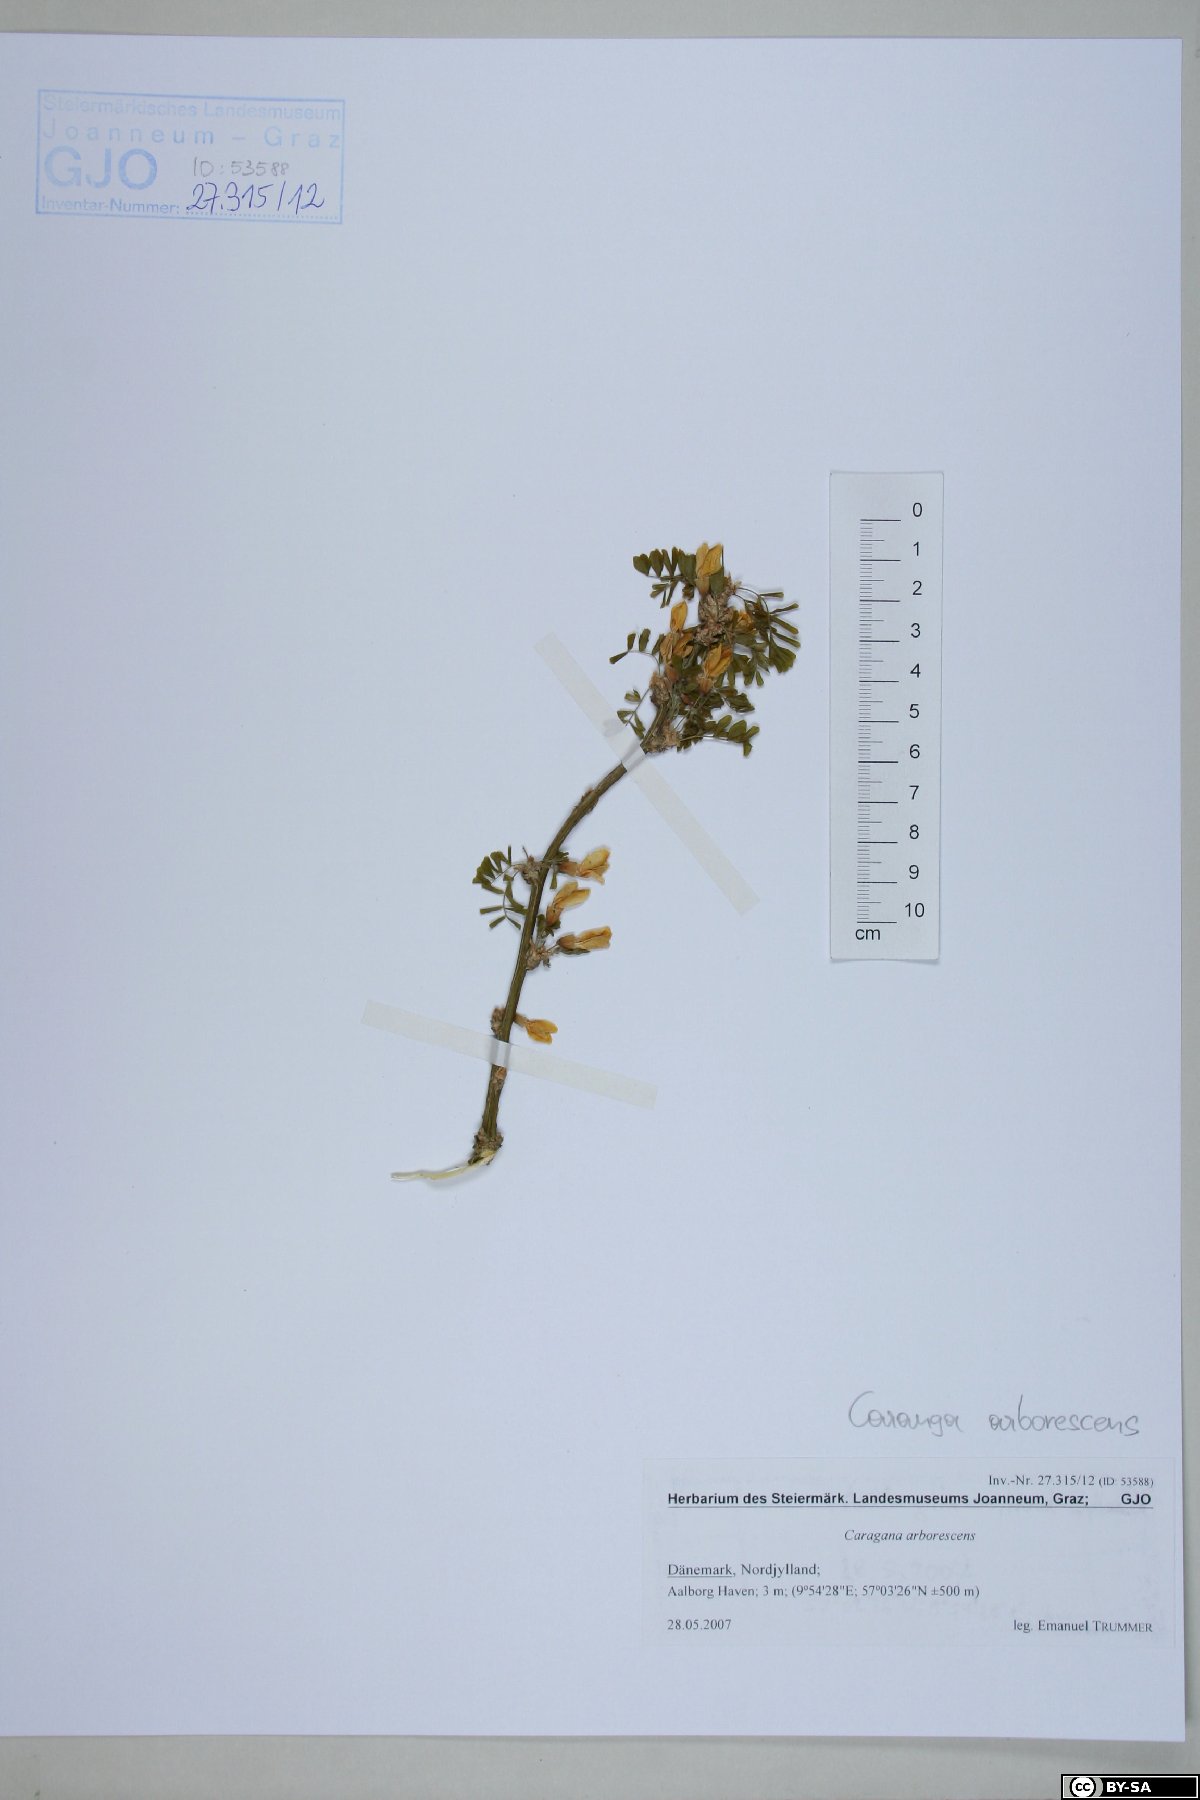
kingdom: Plantae
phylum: Tracheophyta
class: Magnoliopsida
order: Fabales
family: Fabaceae
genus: Caragana
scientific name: Caragana arborescens
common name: Siberian peashrub
